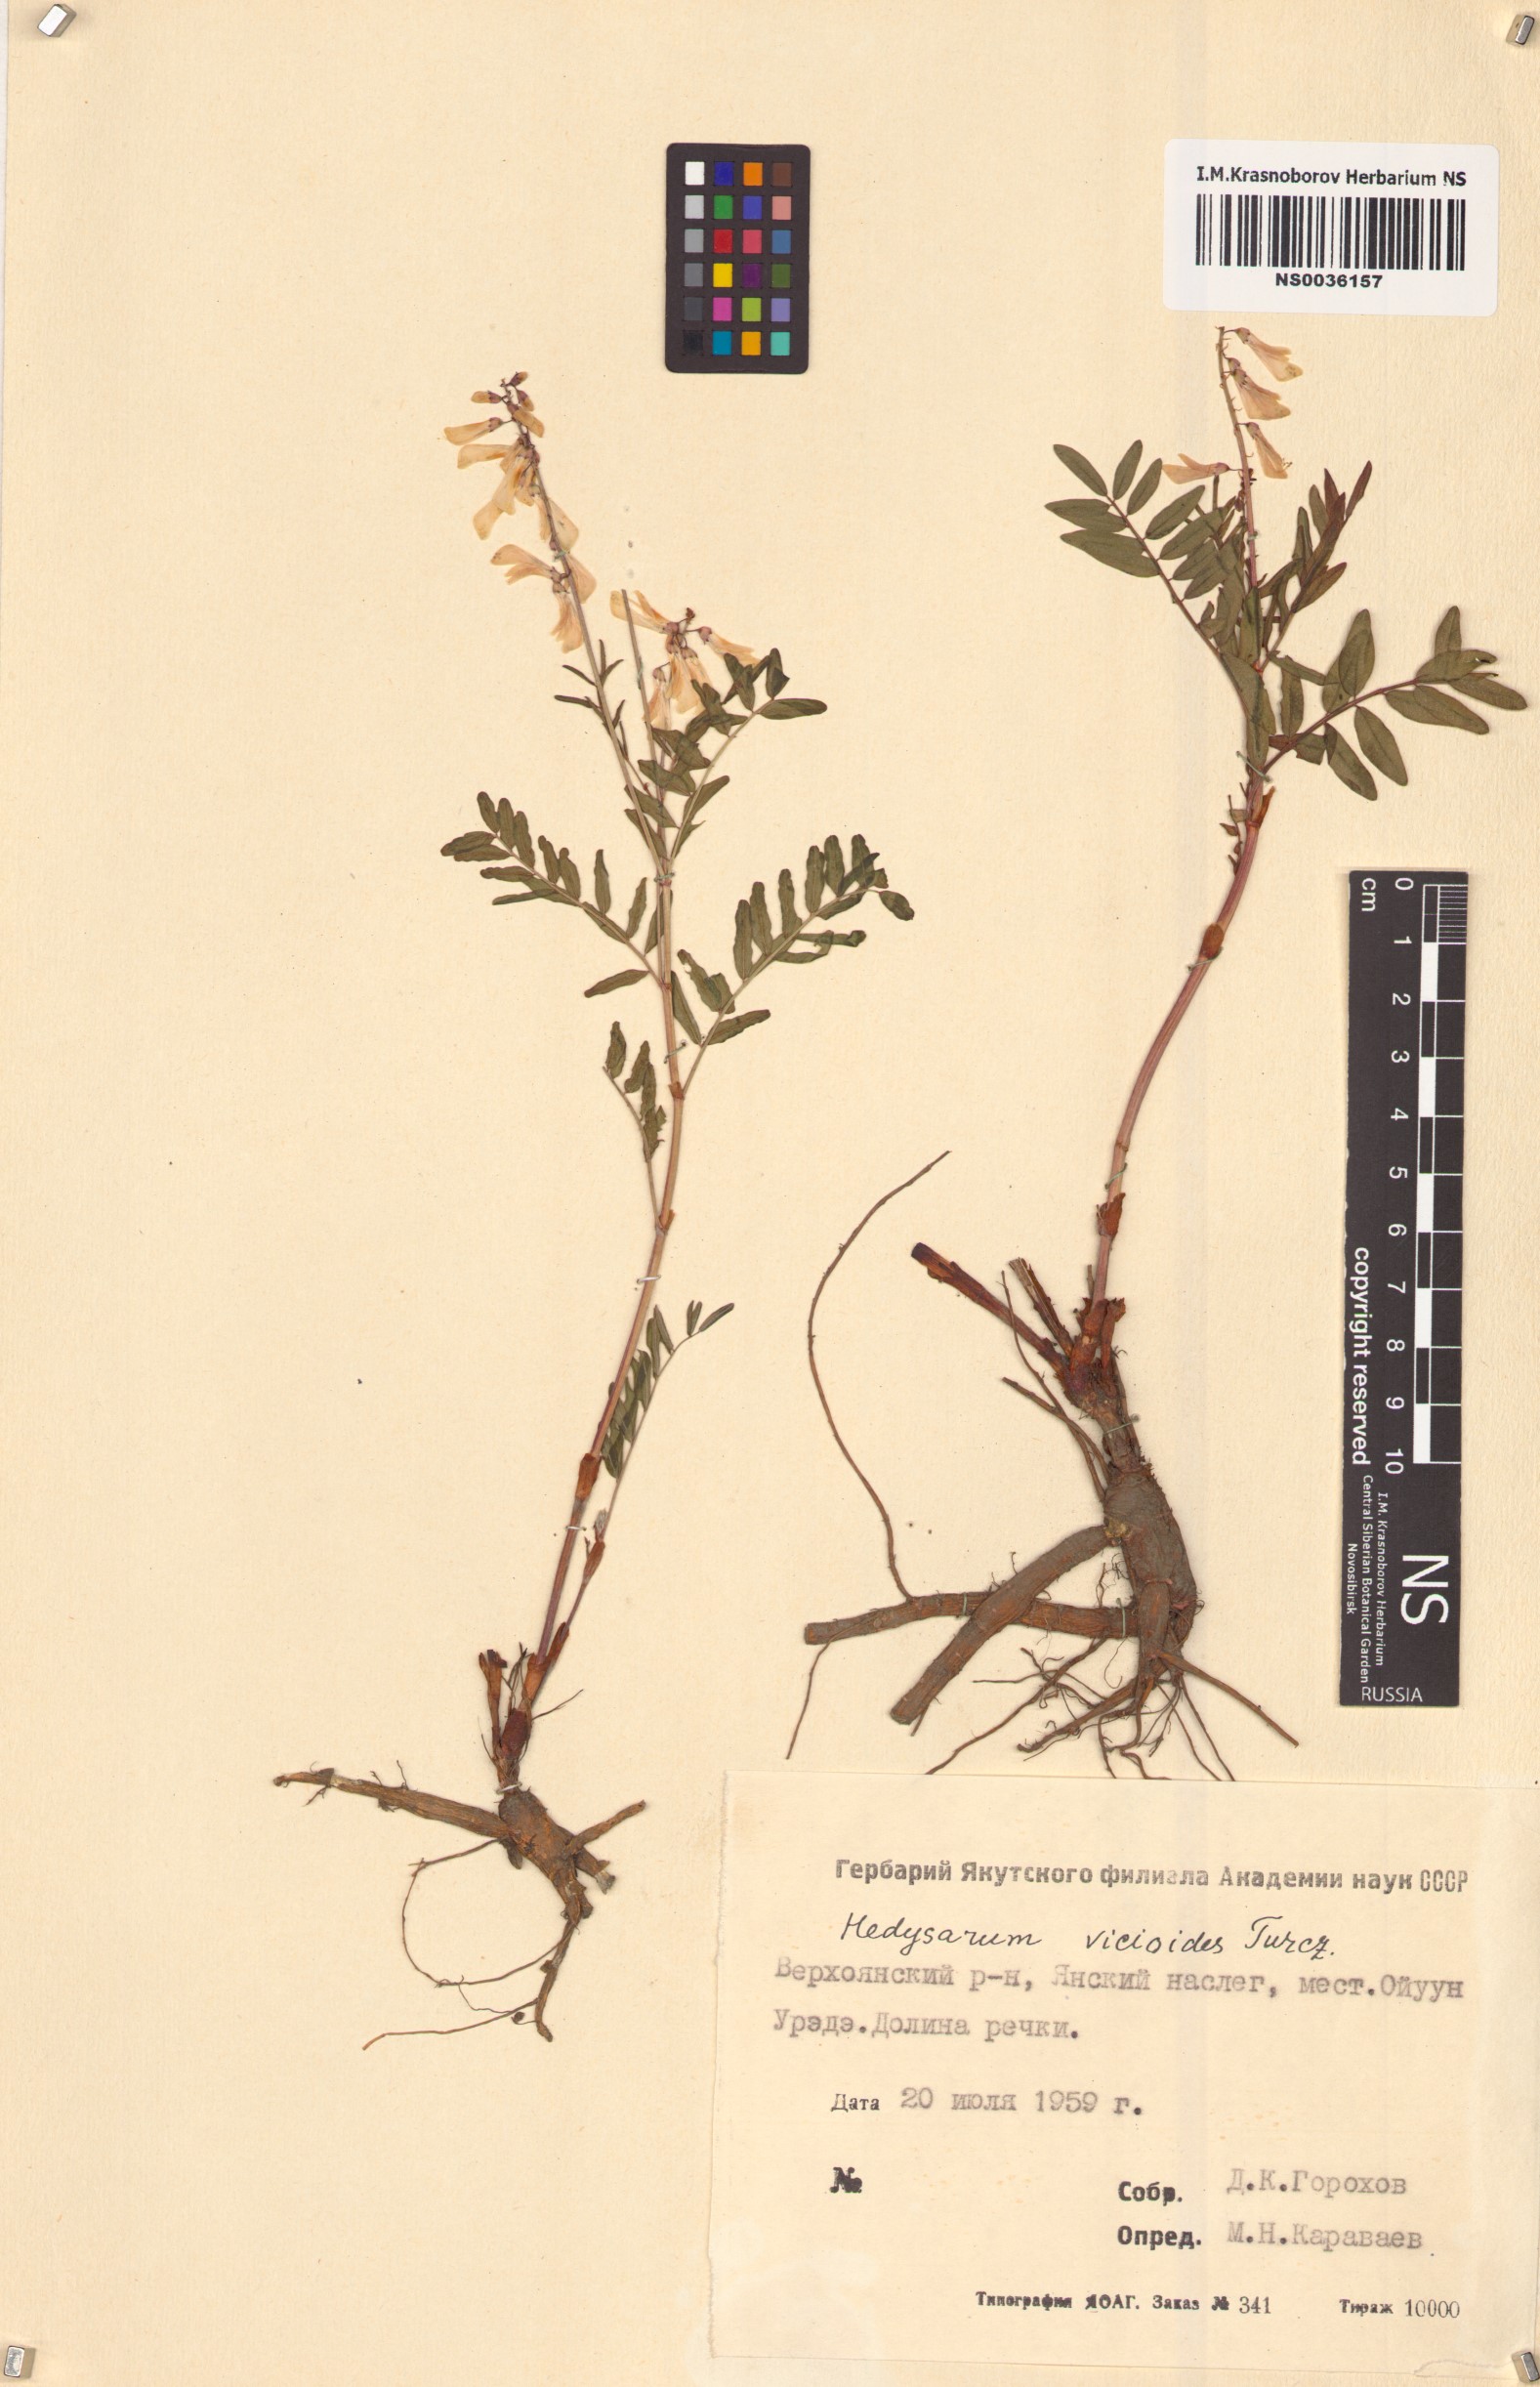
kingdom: Plantae
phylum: Tracheophyta
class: Magnoliopsida
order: Fabales
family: Fabaceae
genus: Hedysarum
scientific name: Hedysarum vicioides
